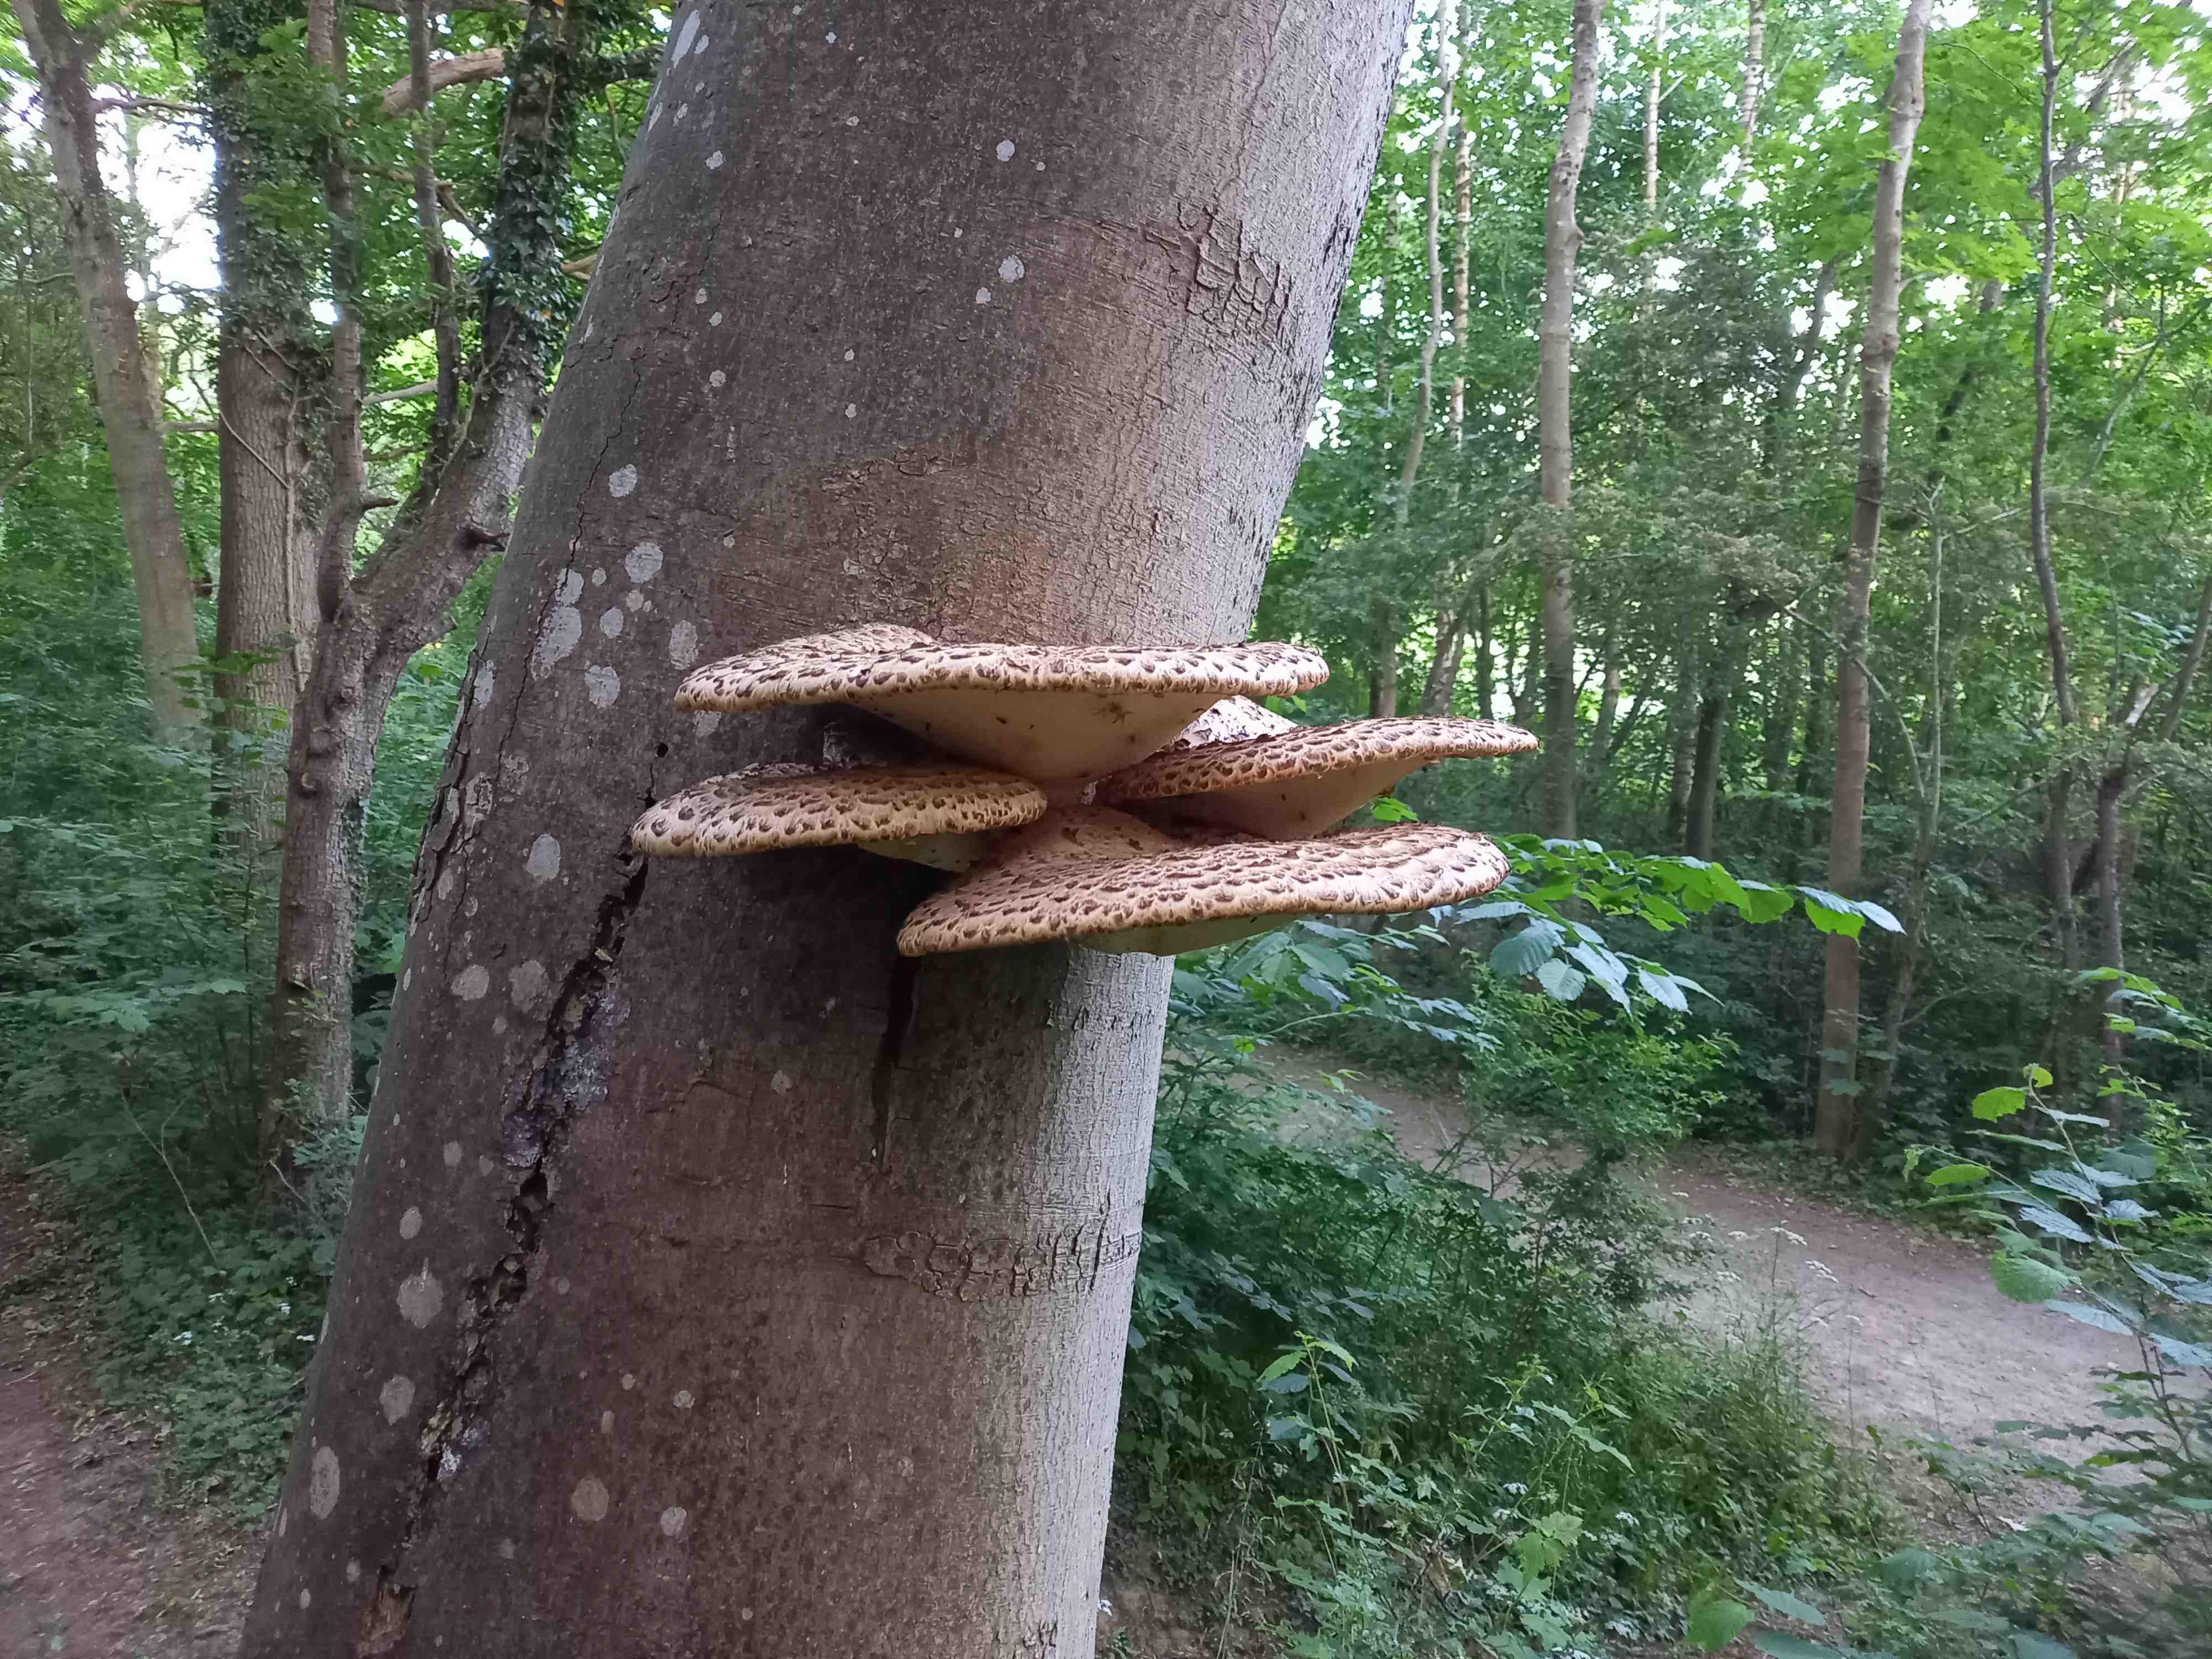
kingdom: Fungi
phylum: Basidiomycota
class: Agaricomycetes
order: Polyporales
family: Polyporaceae
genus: Cerioporus
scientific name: Cerioporus squamosus
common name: skællet stilkporesvamp
